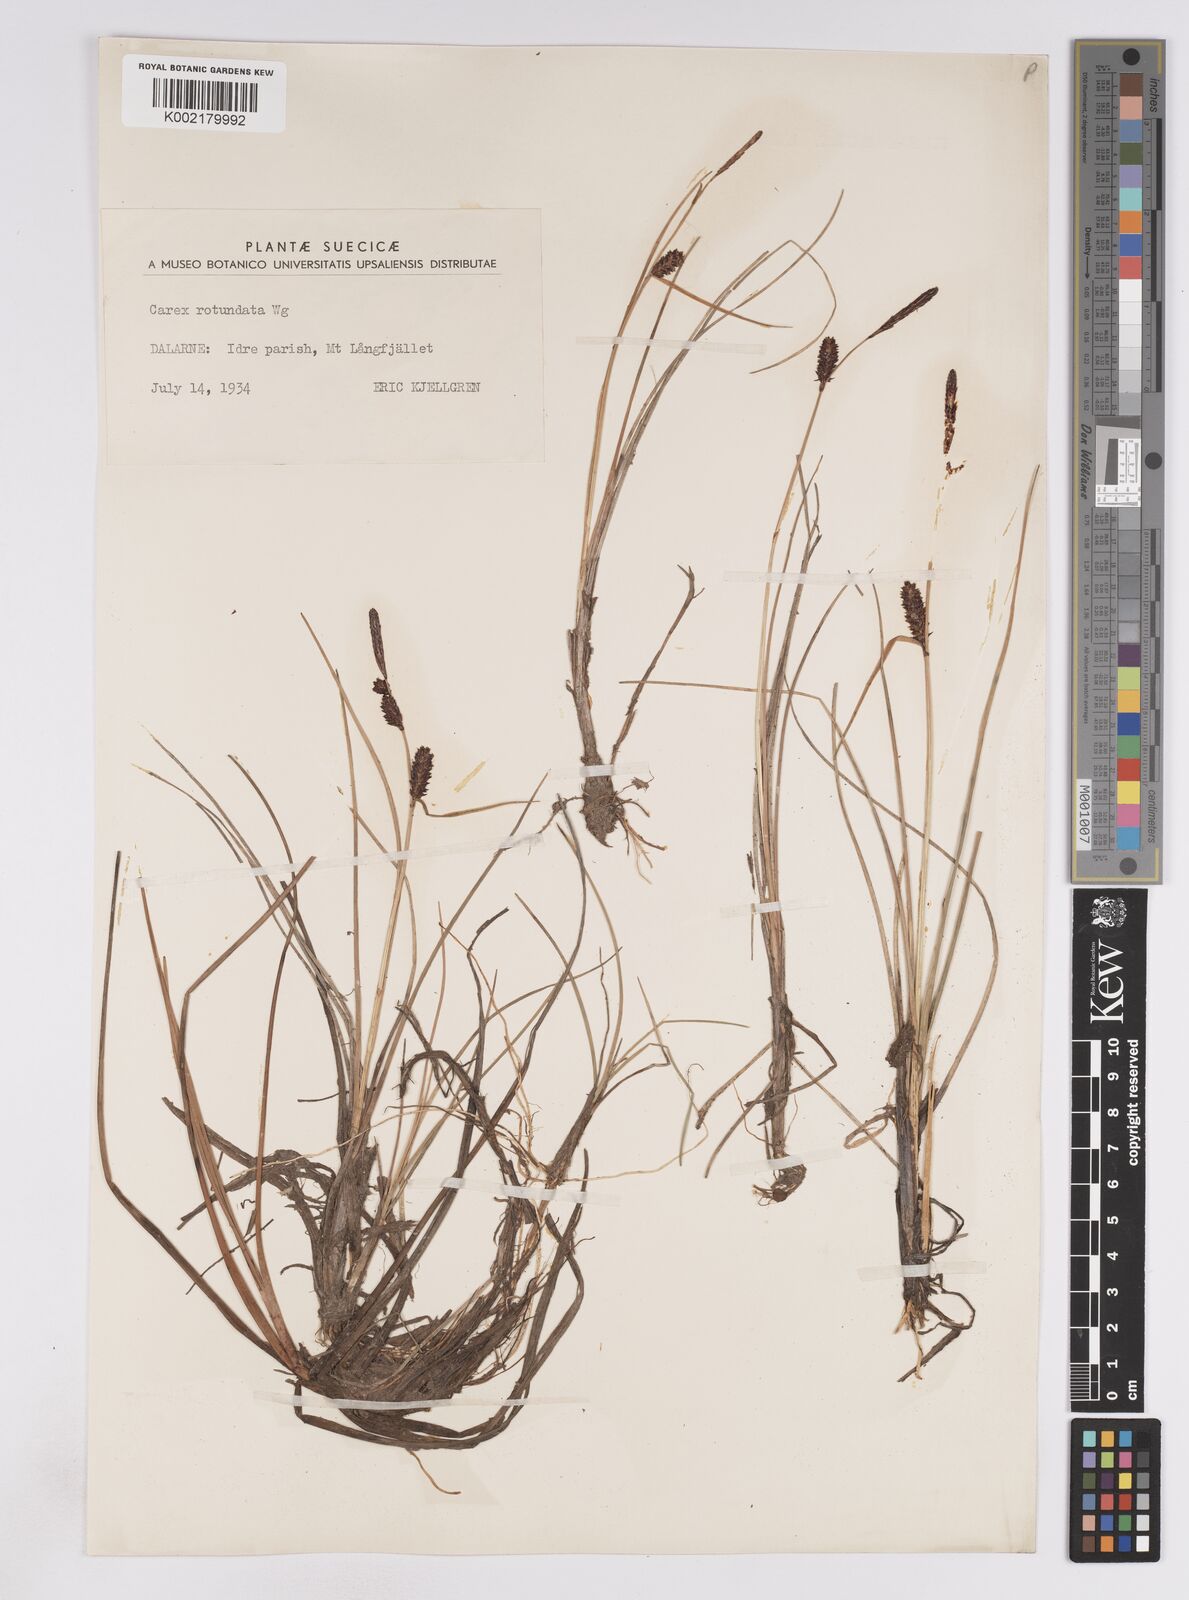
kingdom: Plantae
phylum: Tracheophyta
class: Liliopsida
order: Poales
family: Cyperaceae
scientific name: Cyperaceae
